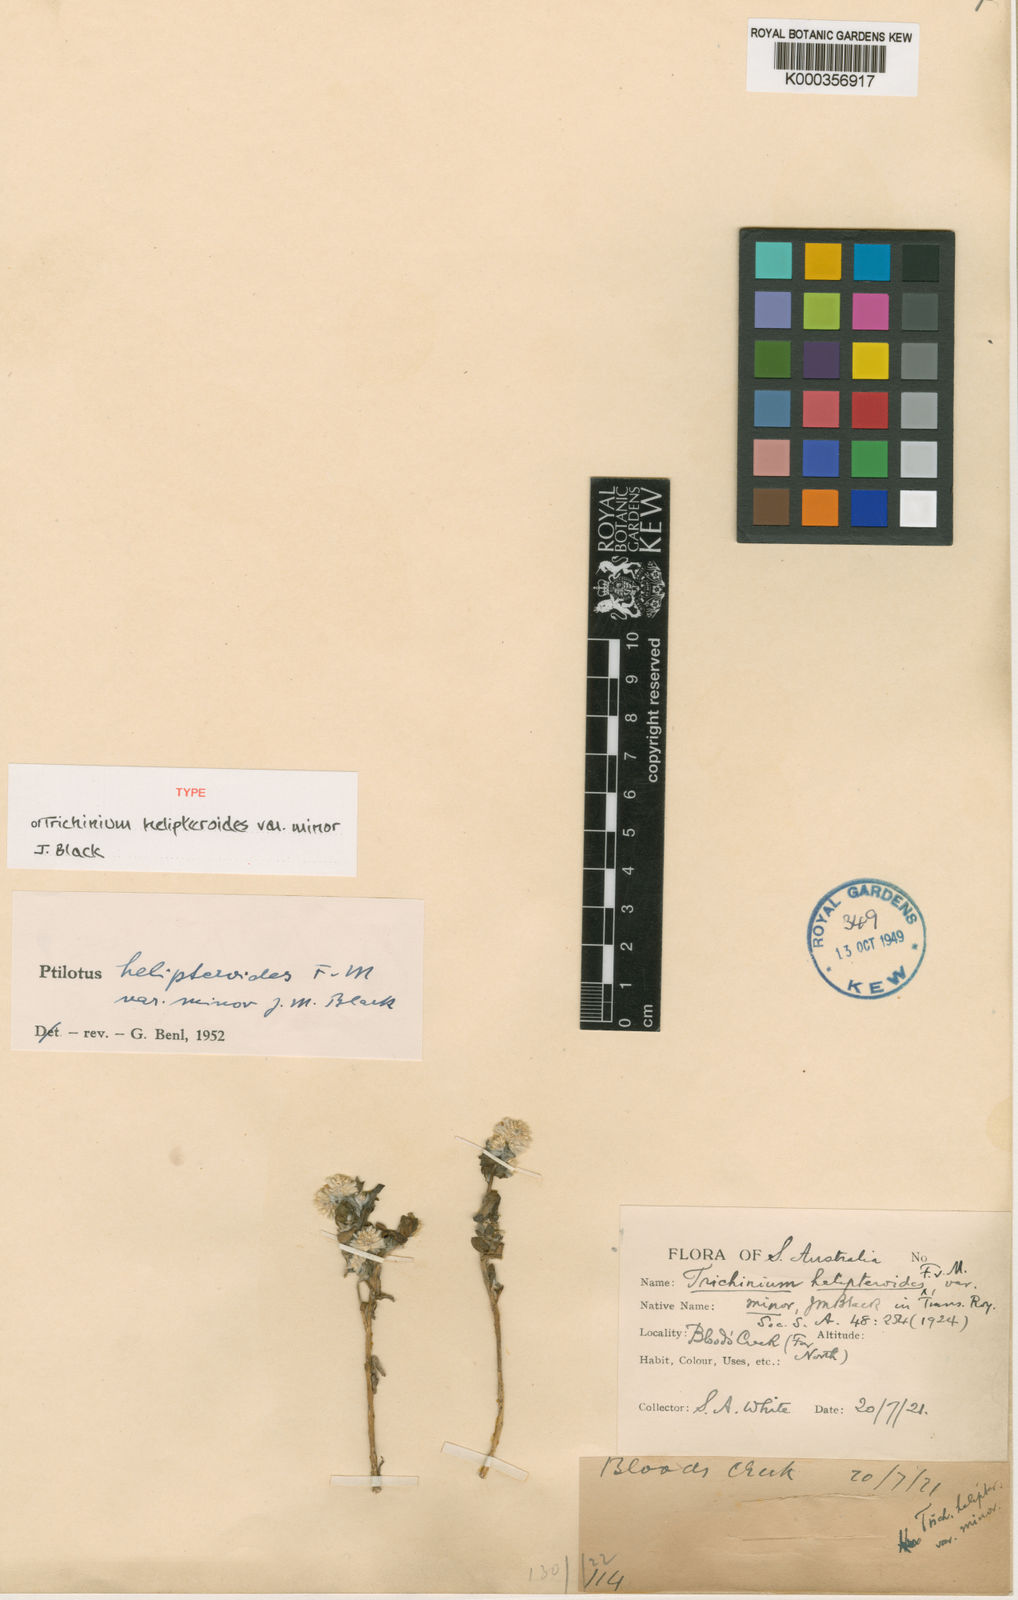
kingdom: Plantae
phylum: Tracheophyta
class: Magnoliopsida
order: Caryophyllales
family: Amaranthaceae
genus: Ptilotus
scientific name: Ptilotus helipteroides
